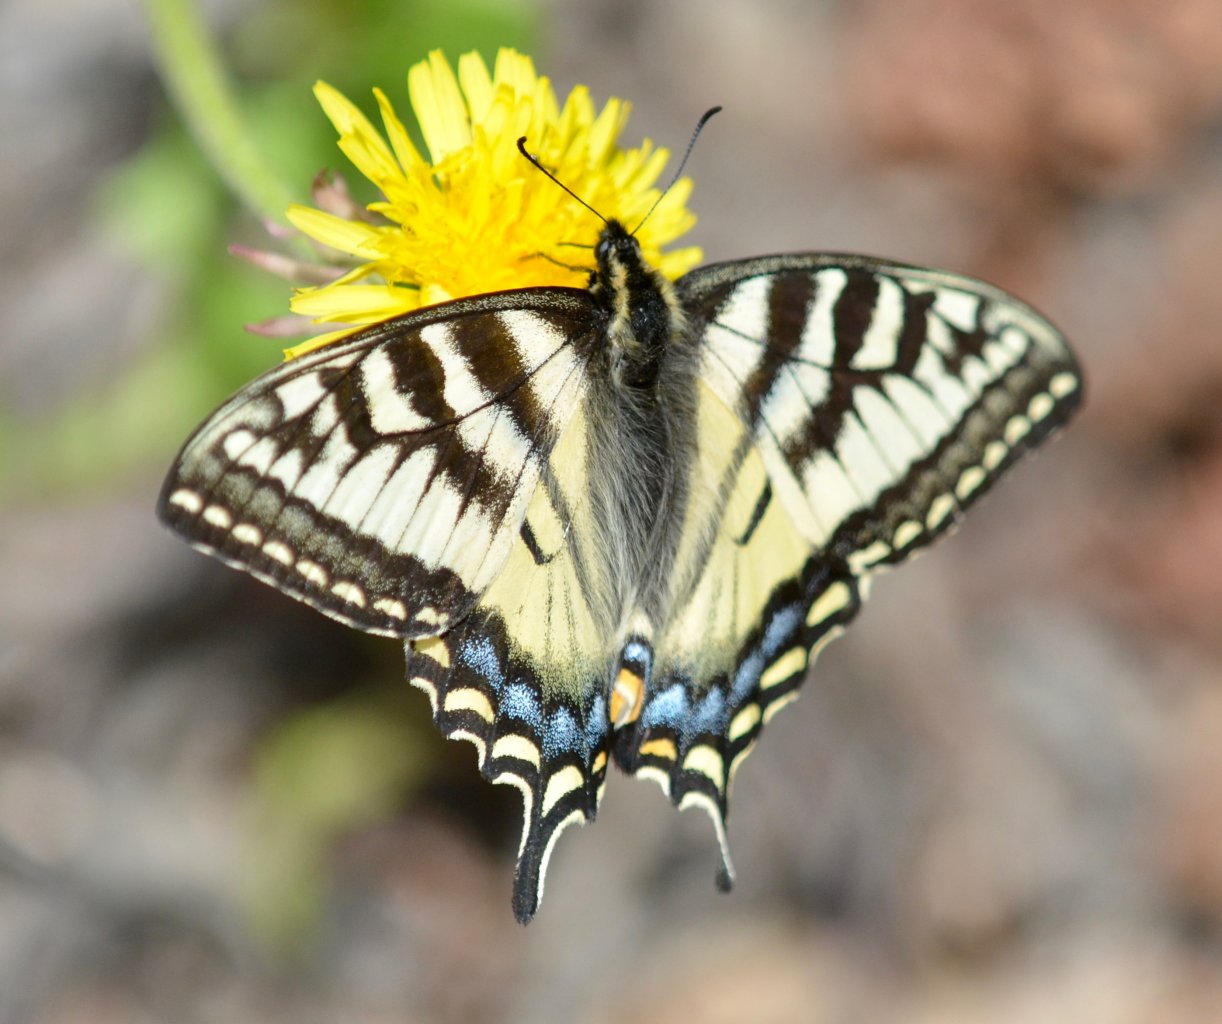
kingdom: Animalia
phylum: Arthropoda
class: Insecta
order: Lepidoptera
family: Papilionidae
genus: Pterourus
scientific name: Pterourus canadensis
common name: Canadian Tiger Swallowtail
